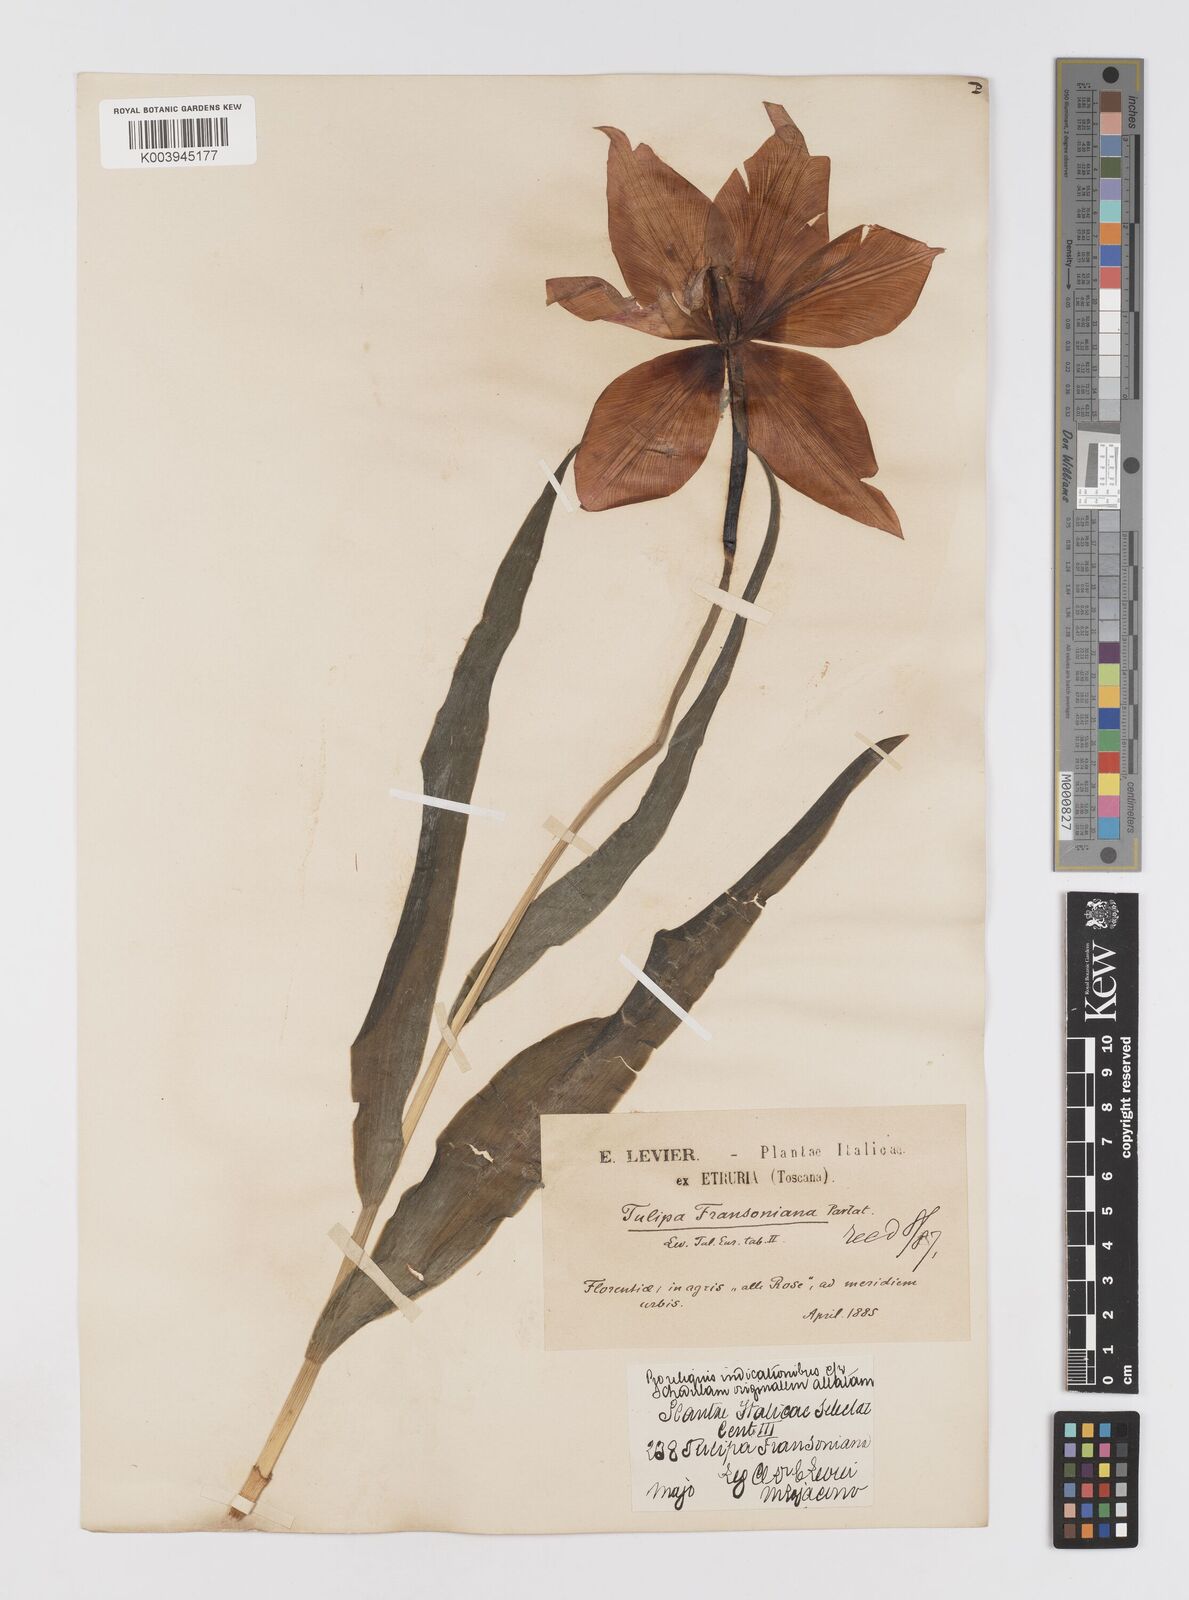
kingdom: Plantae
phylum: Tracheophyta
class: Liliopsida
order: Liliales
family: Liliaceae
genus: Tulipa
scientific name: Tulipa gesneriana
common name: Garden tulip
